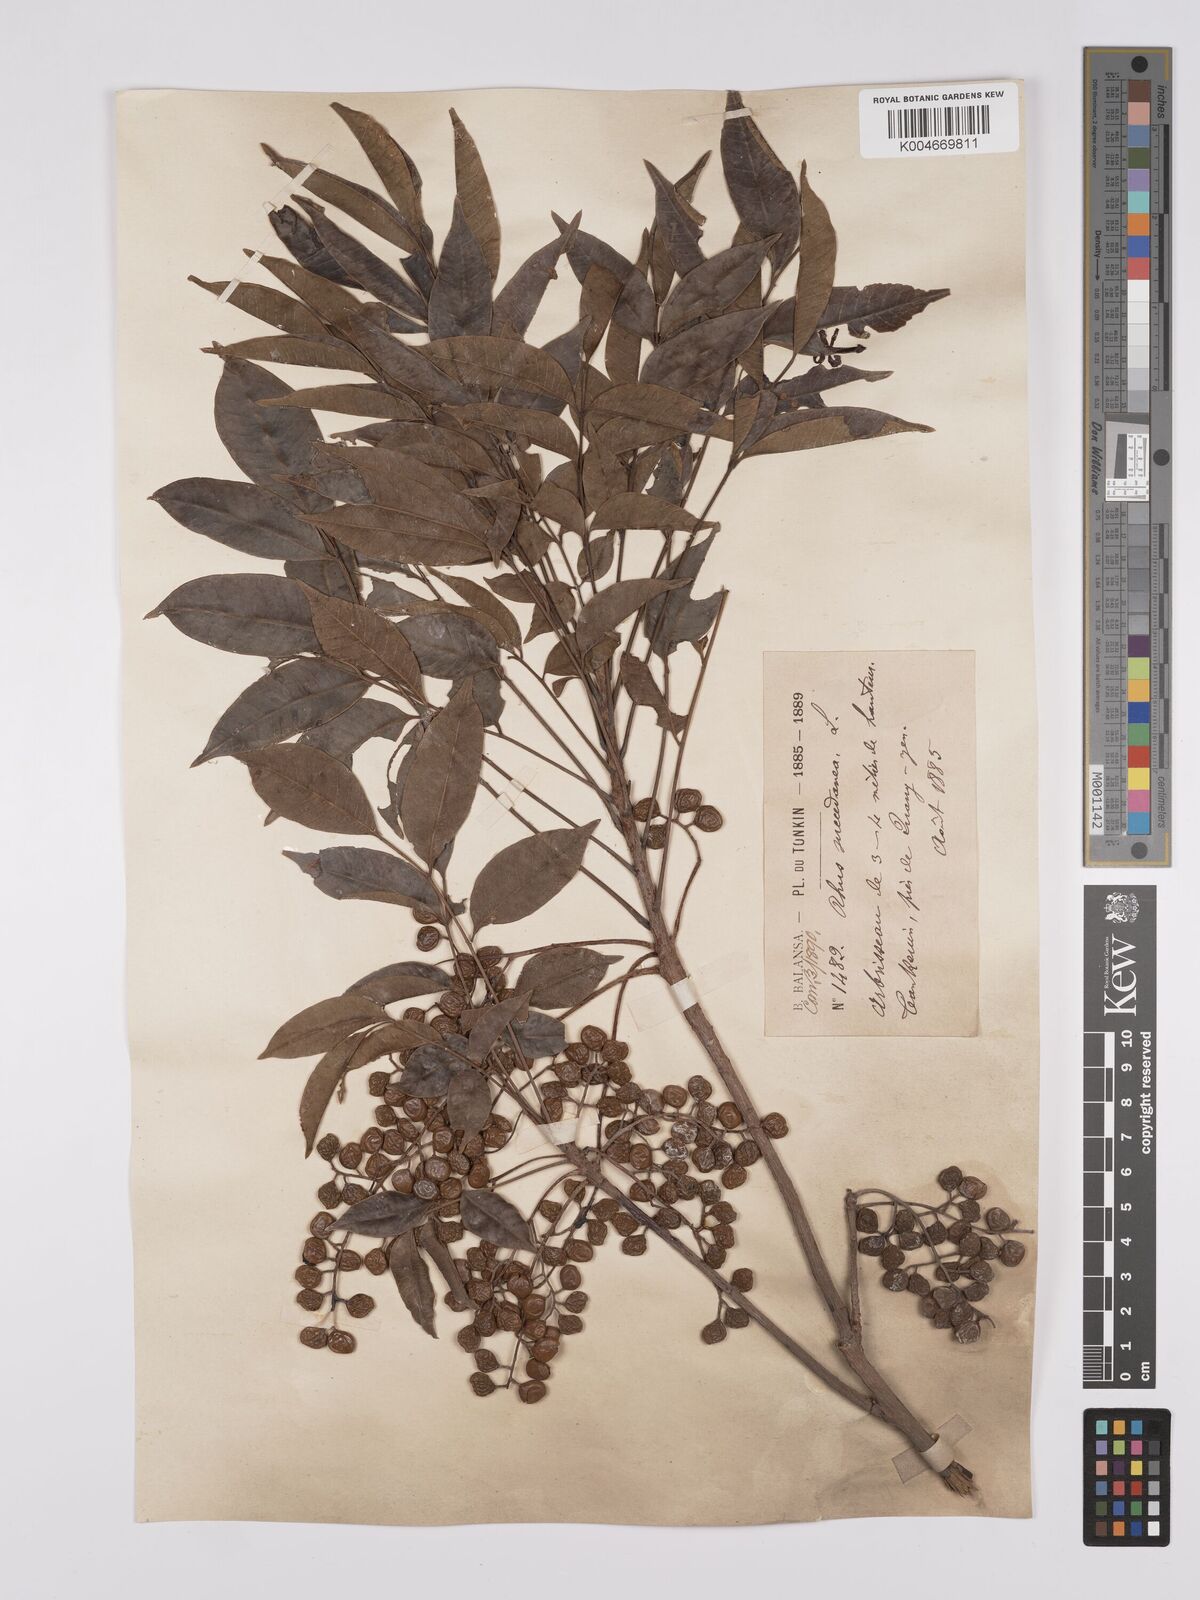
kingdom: Plantae
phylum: Tracheophyta
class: Magnoliopsida
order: Sapindales
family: Anacardiaceae
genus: Toxicodendron
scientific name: Toxicodendron succedaneum
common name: Wax tree
